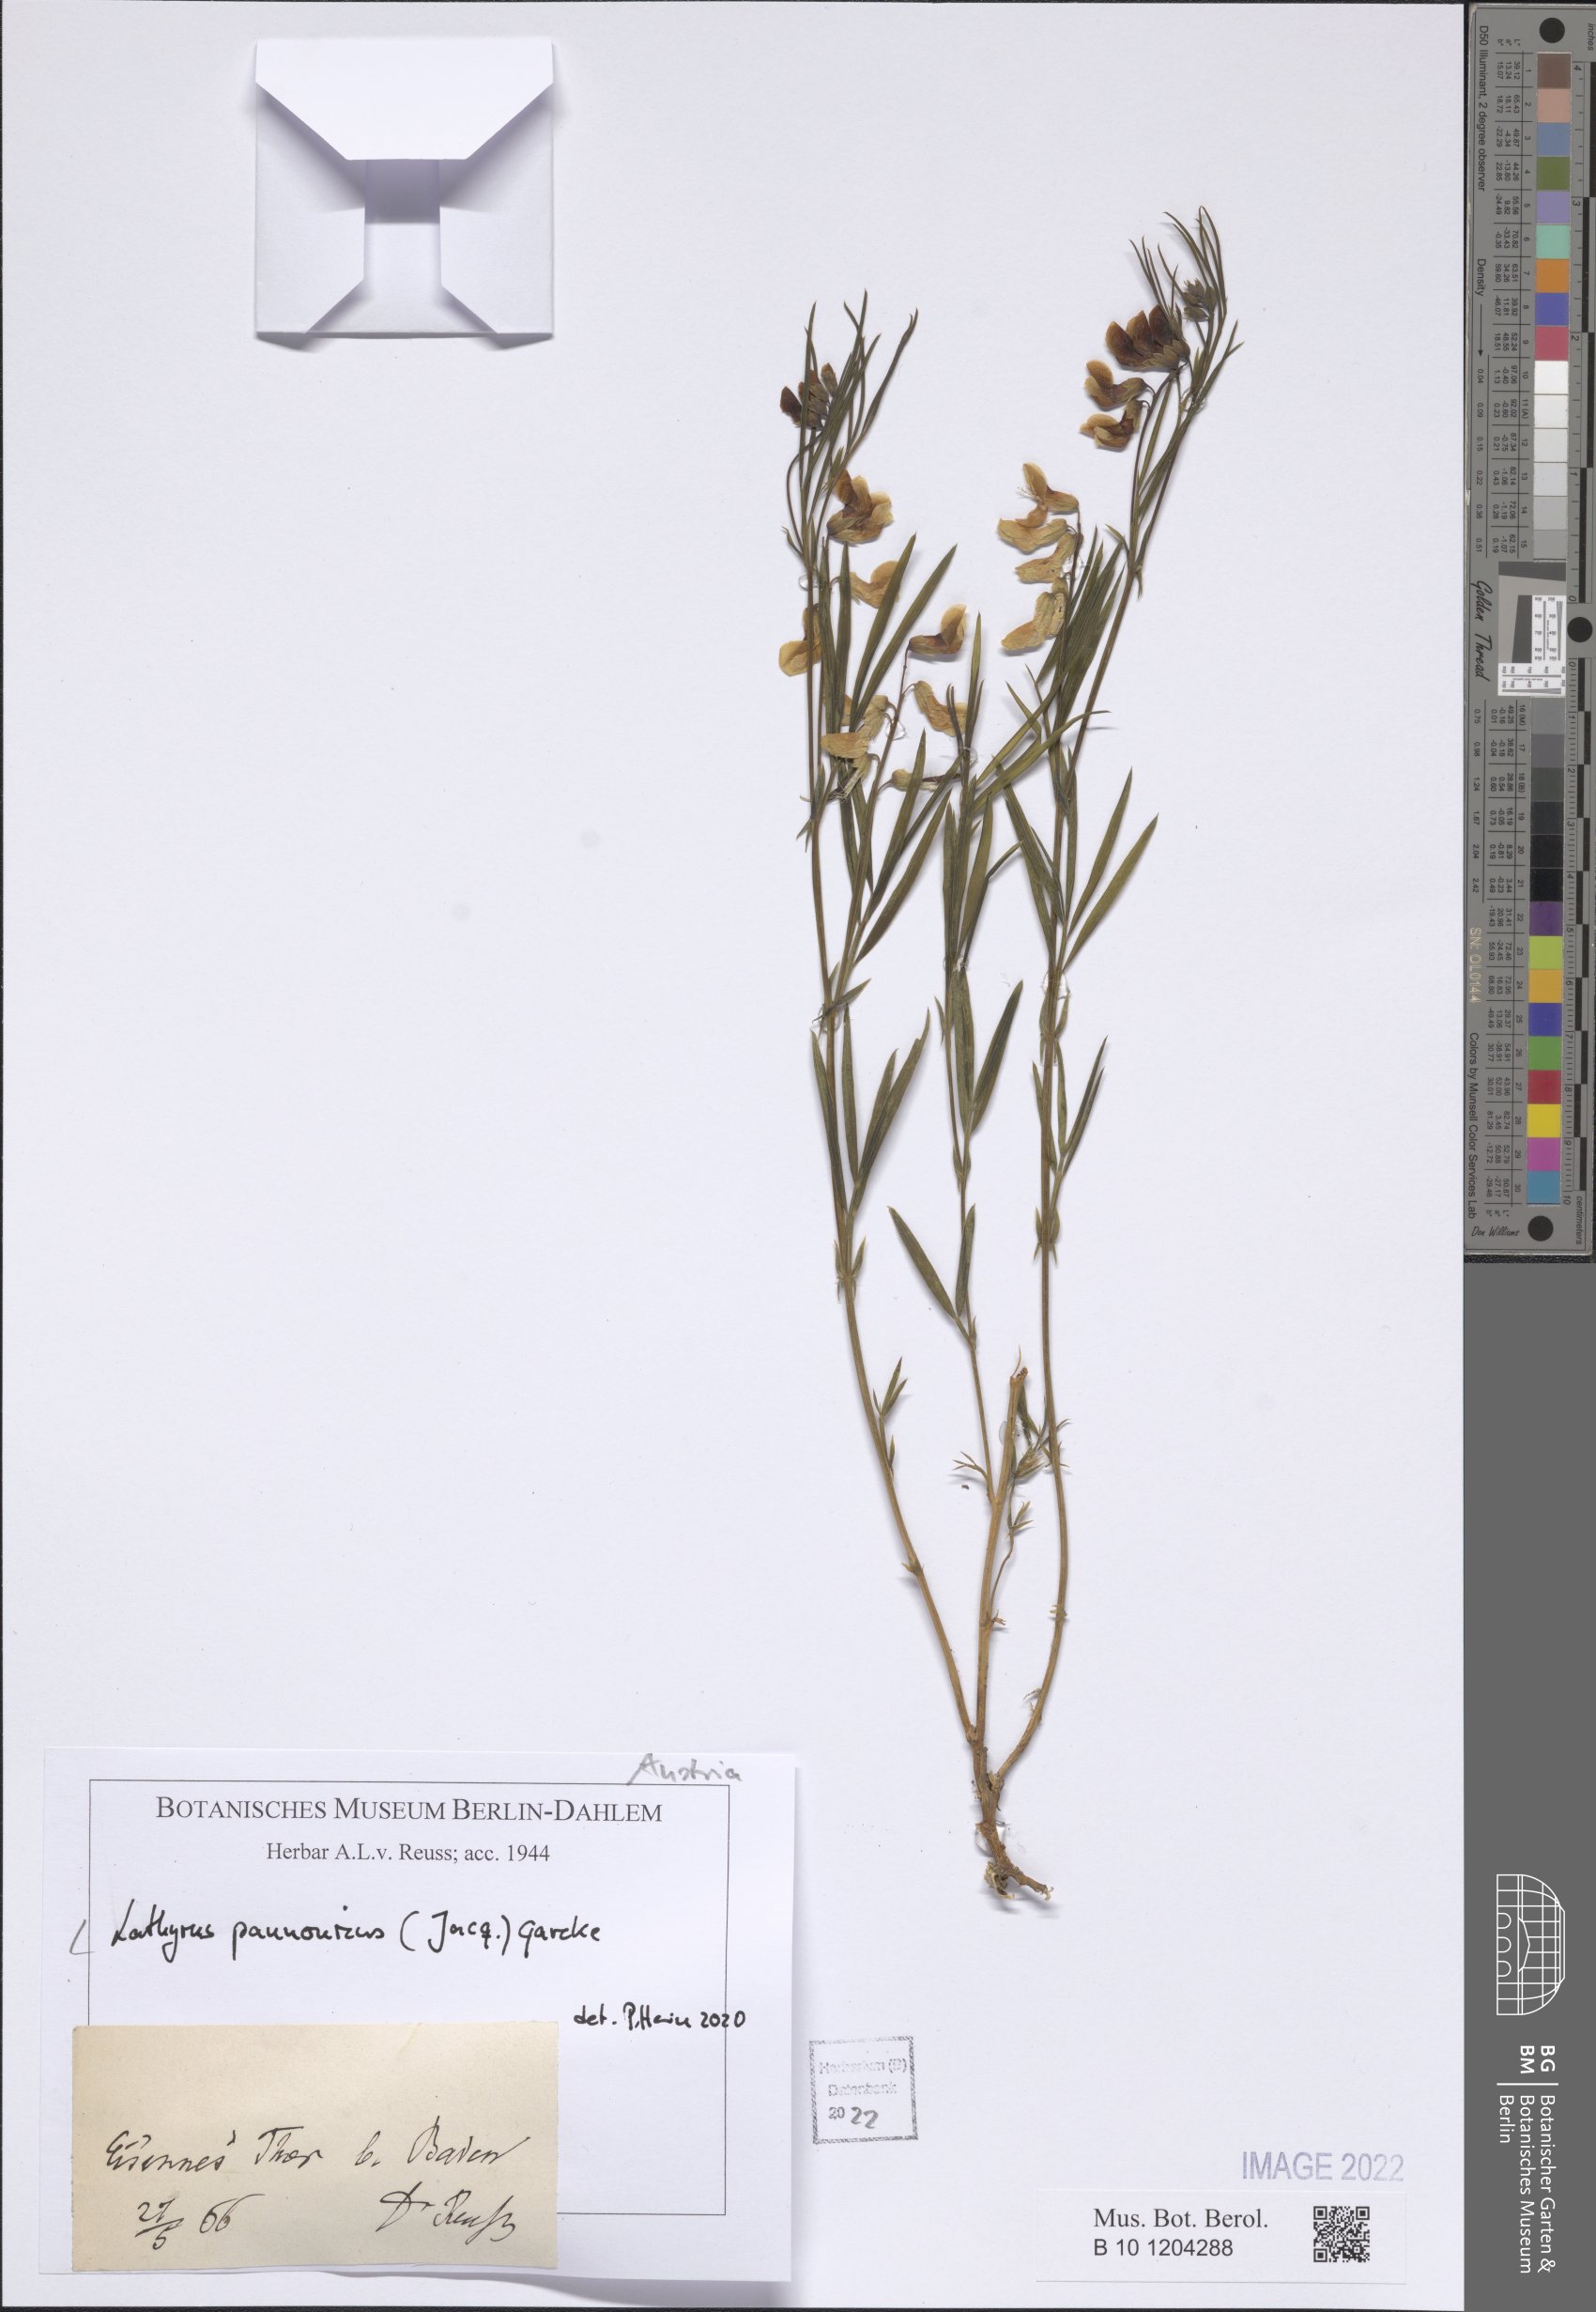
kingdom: Plantae
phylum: Tracheophyta
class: Magnoliopsida
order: Fabales
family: Fabaceae
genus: Lathyrus
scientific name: Lathyrus pannonicus
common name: Pea
